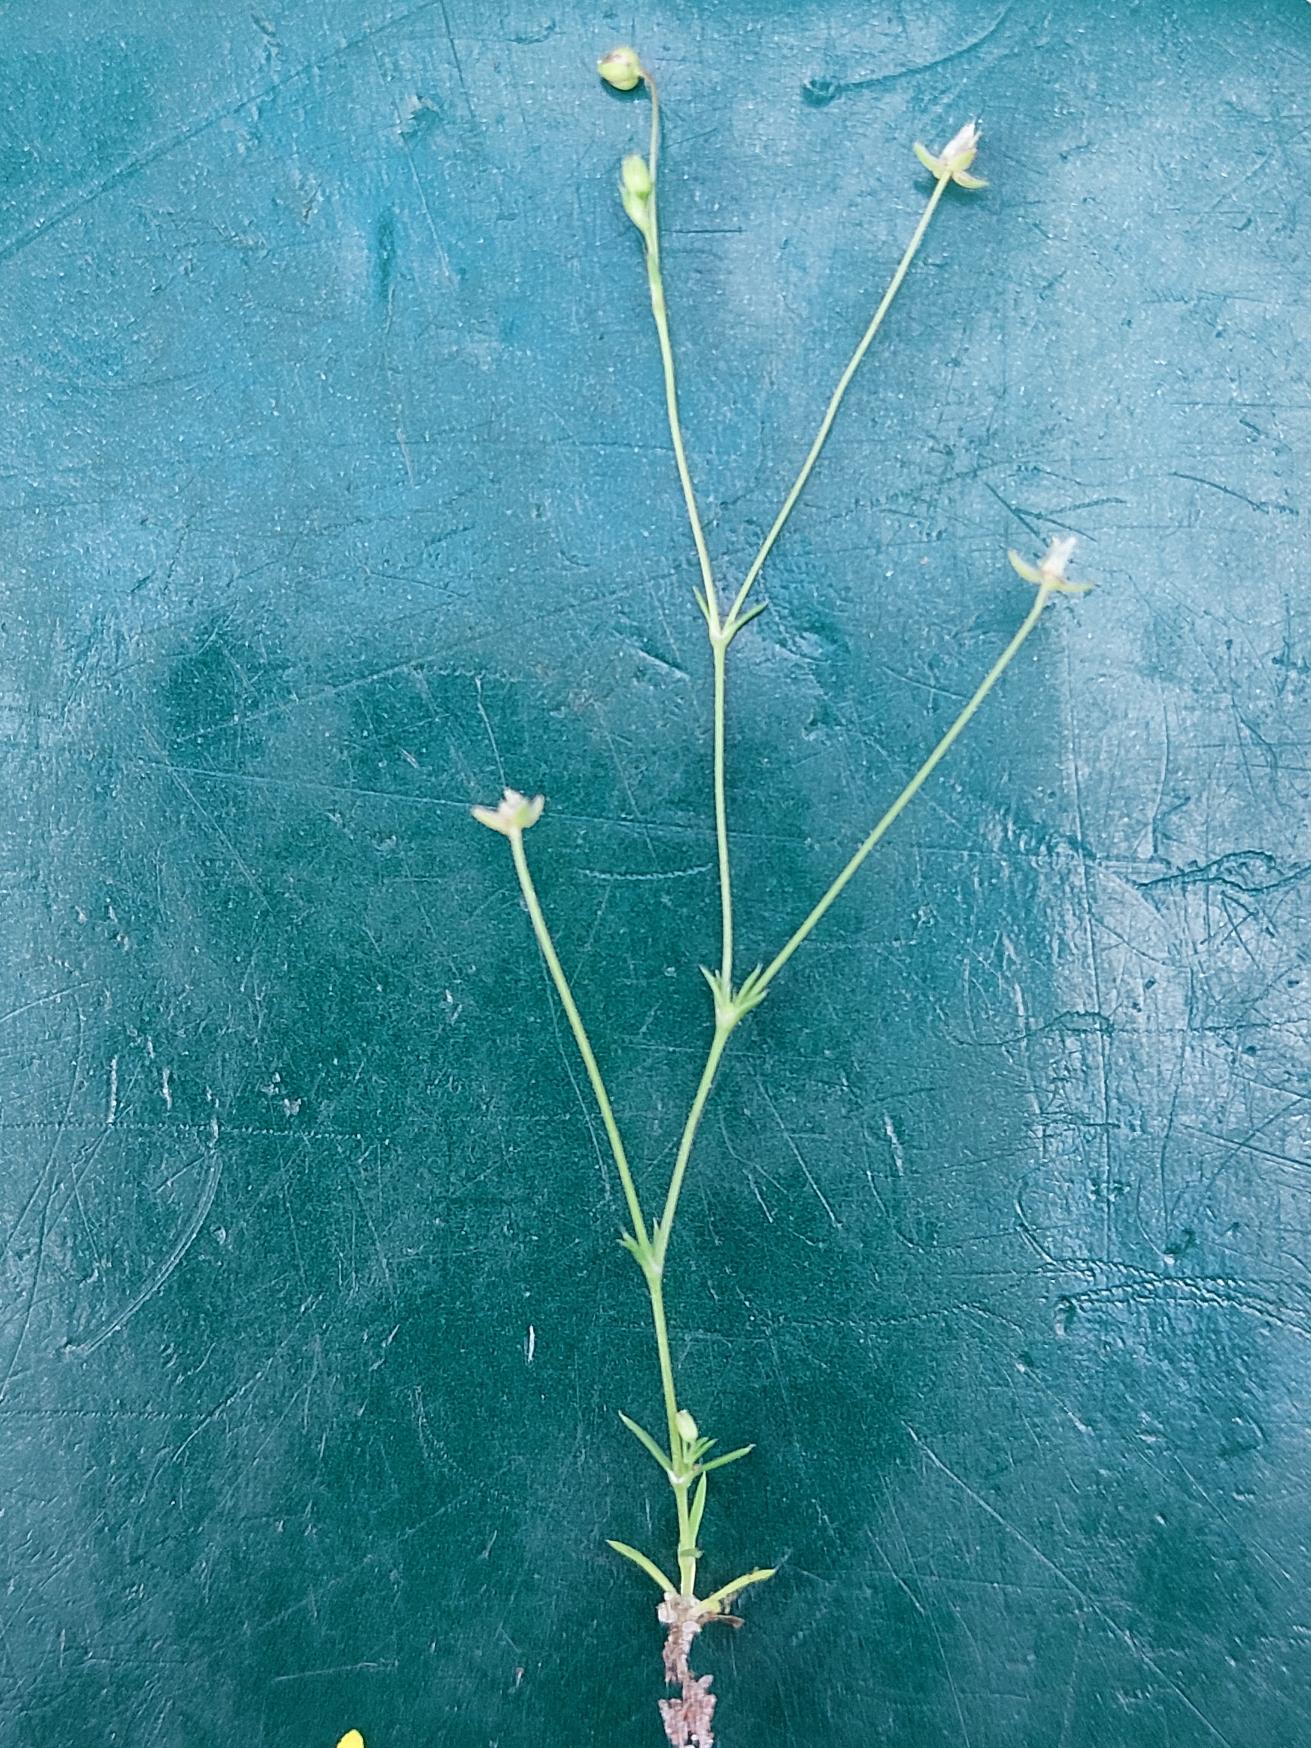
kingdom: Plantae
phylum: Tracheophyta
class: Magnoliopsida
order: Caryophyllales
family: Caryophyllaceae
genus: Sagina
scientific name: Sagina micropetala
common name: Håret firling
